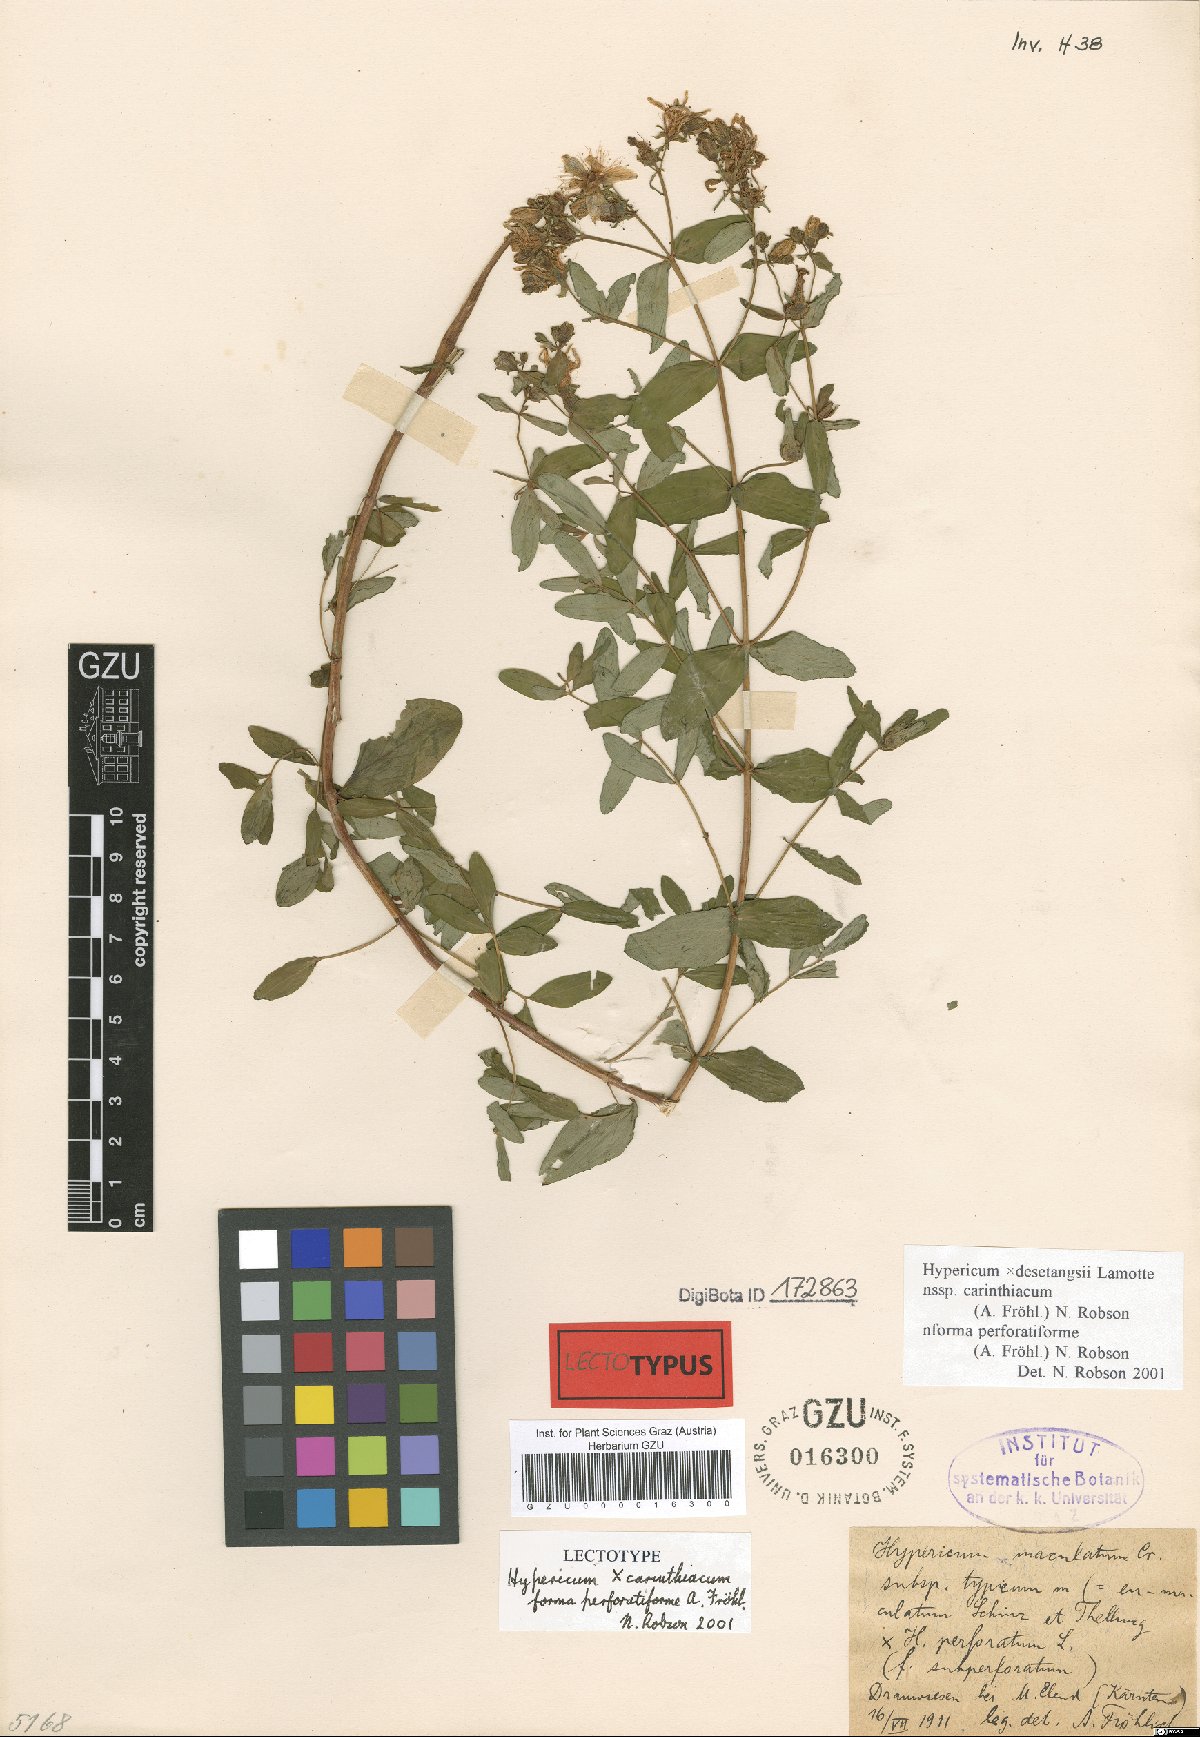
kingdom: Plantae
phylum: Tracheophyta
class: Magnoliopsida
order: Malpighiales
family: Hypericaceae
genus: Hypericum
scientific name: Hypericum carinthiacum
